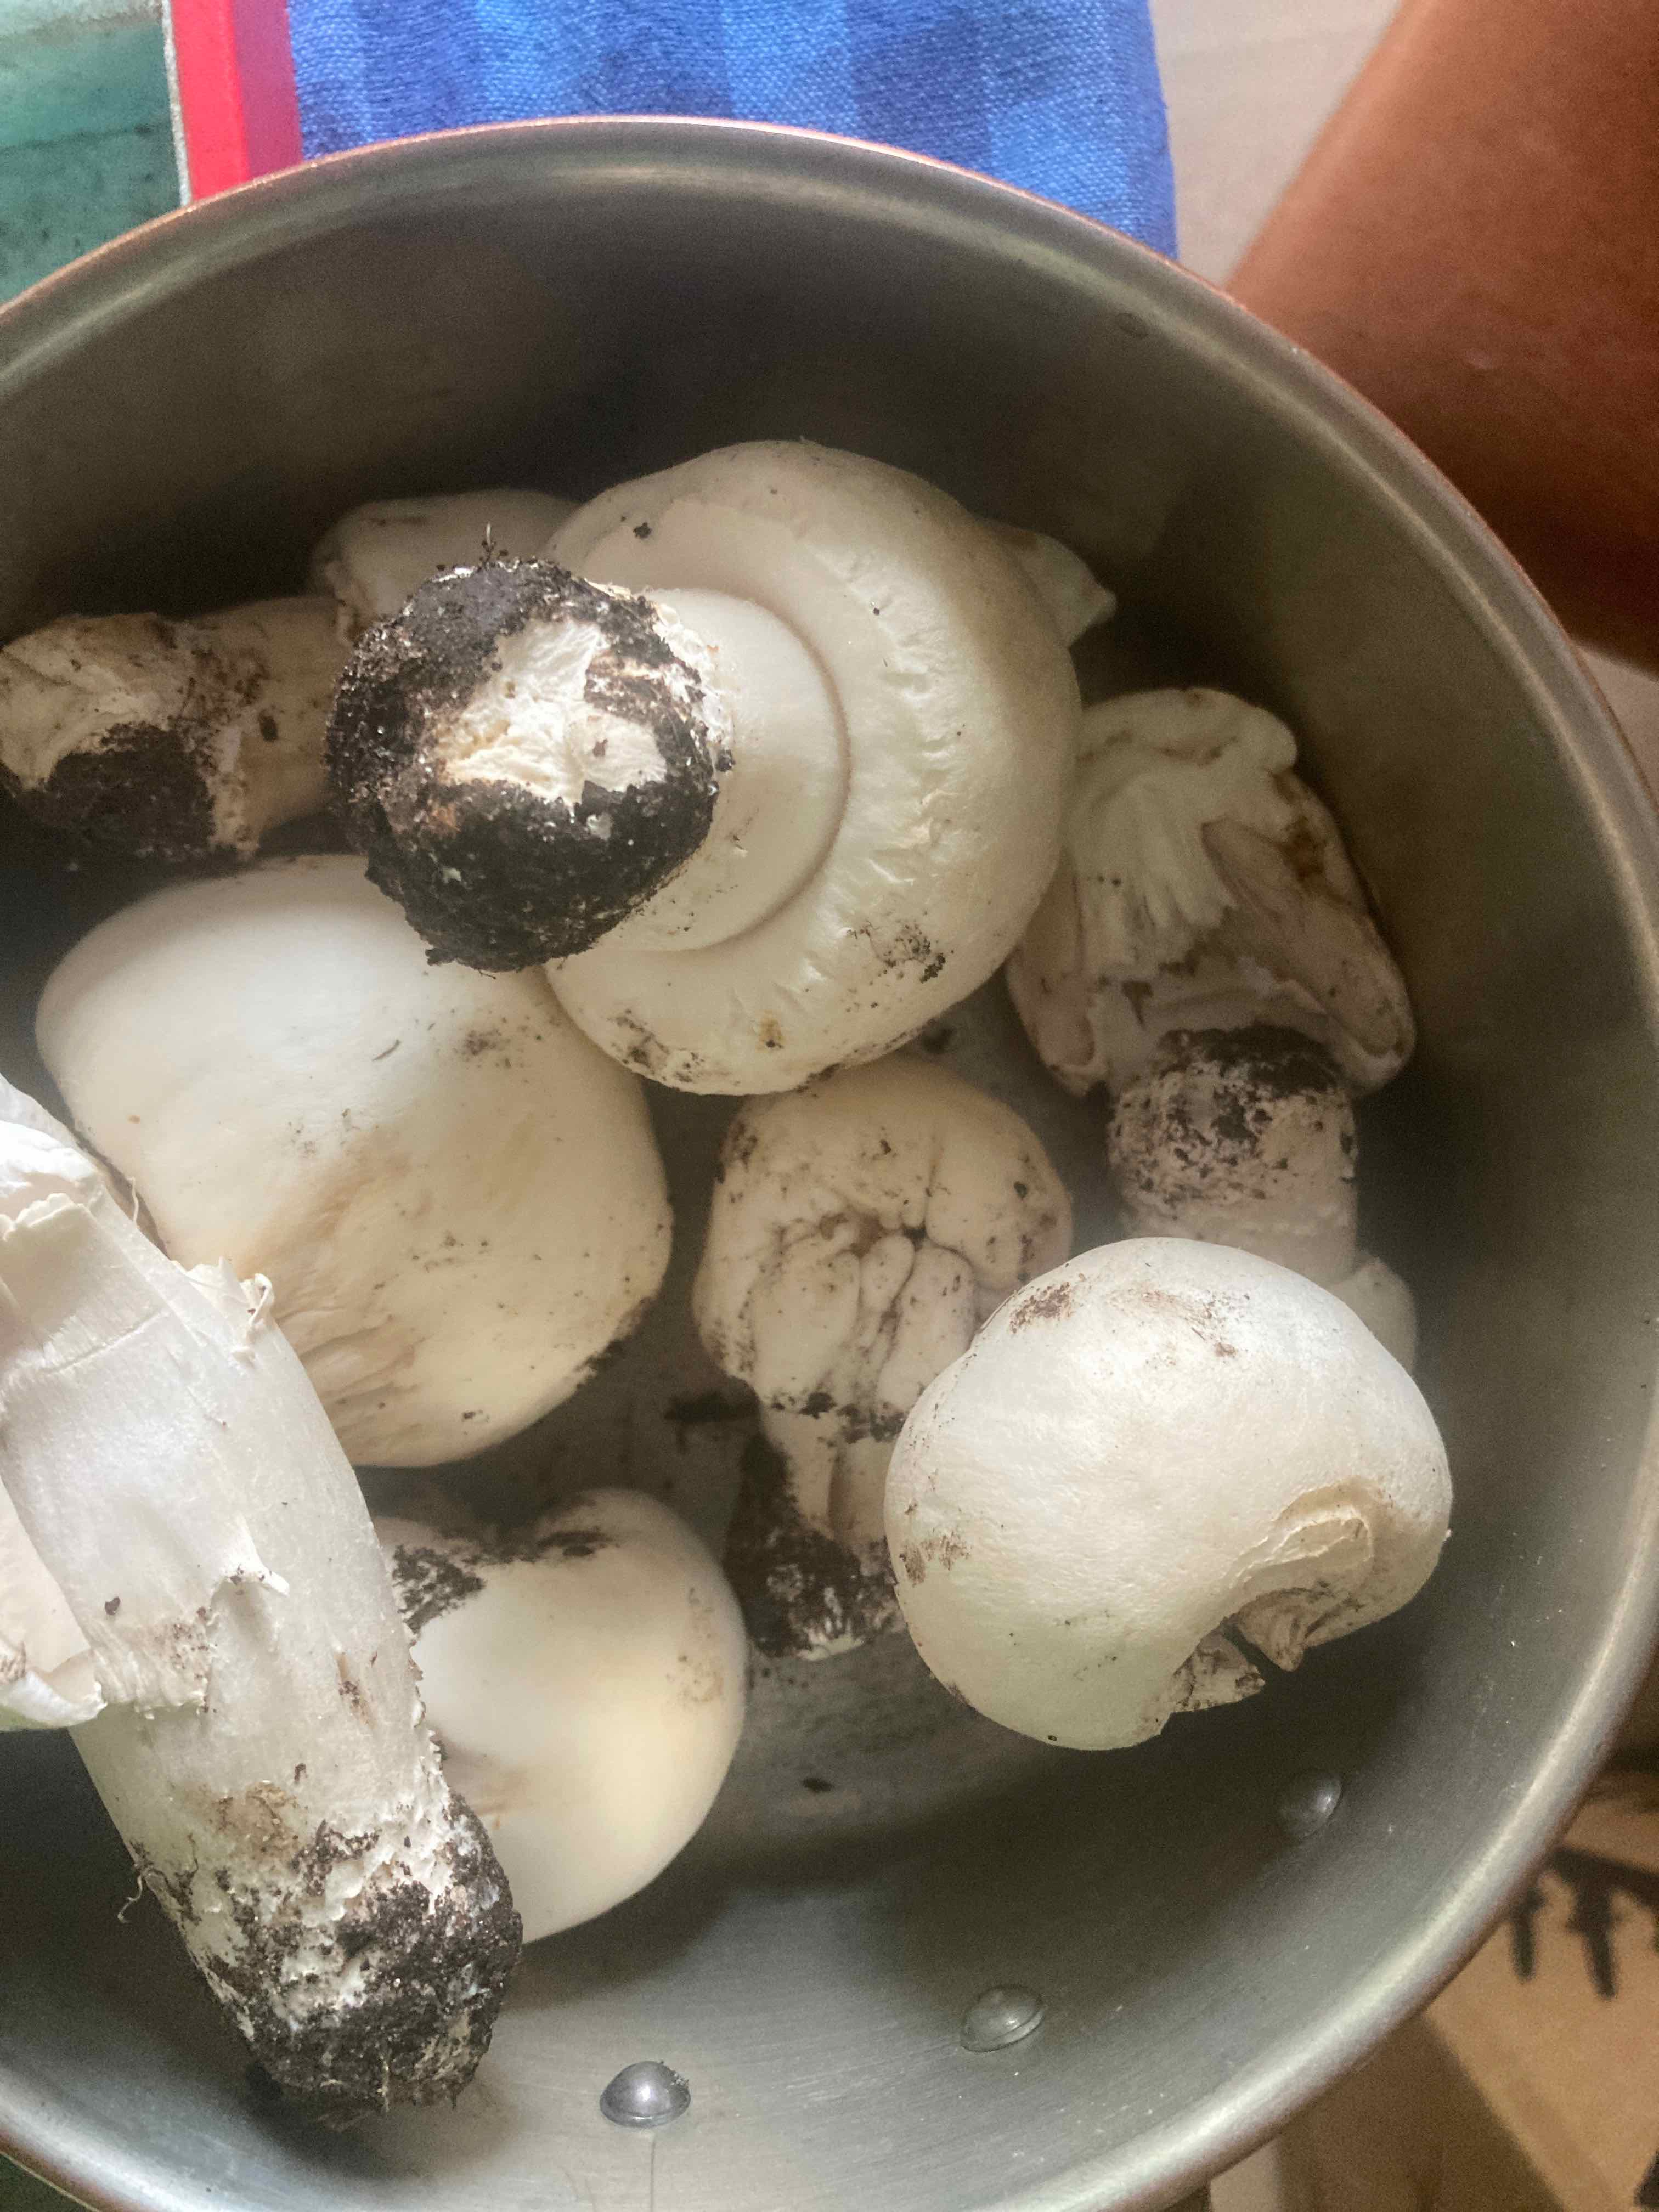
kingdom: Fungi
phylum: Basidiomycota
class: Agaricomycetes
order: Agaricales
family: Agaricaceae
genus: Agaricus
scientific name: Agaricus
